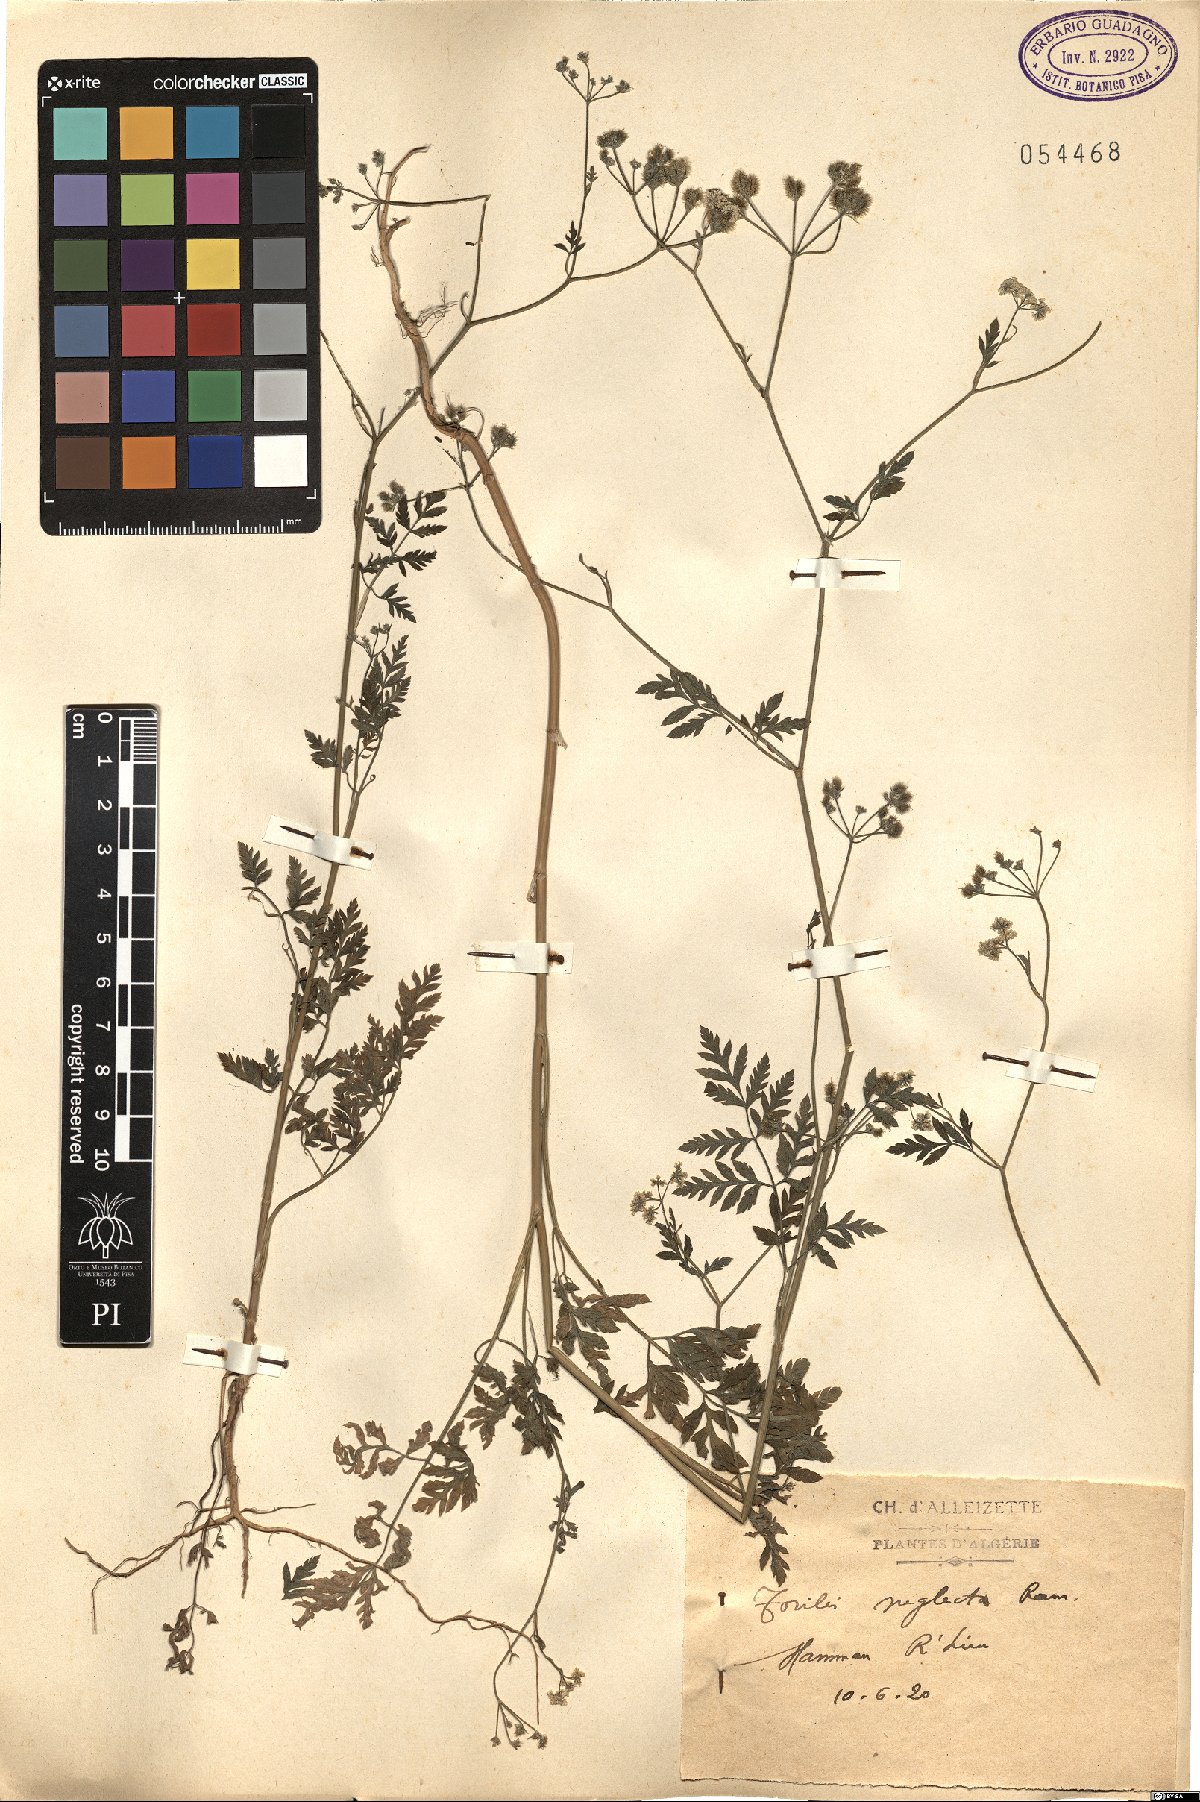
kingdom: Plantae
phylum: Tracheophyta
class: Magnoliopsida
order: Apiales
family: Apiaceae
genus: Torilis
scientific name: Torilis arvensis
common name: Spreading hedge-parsley
